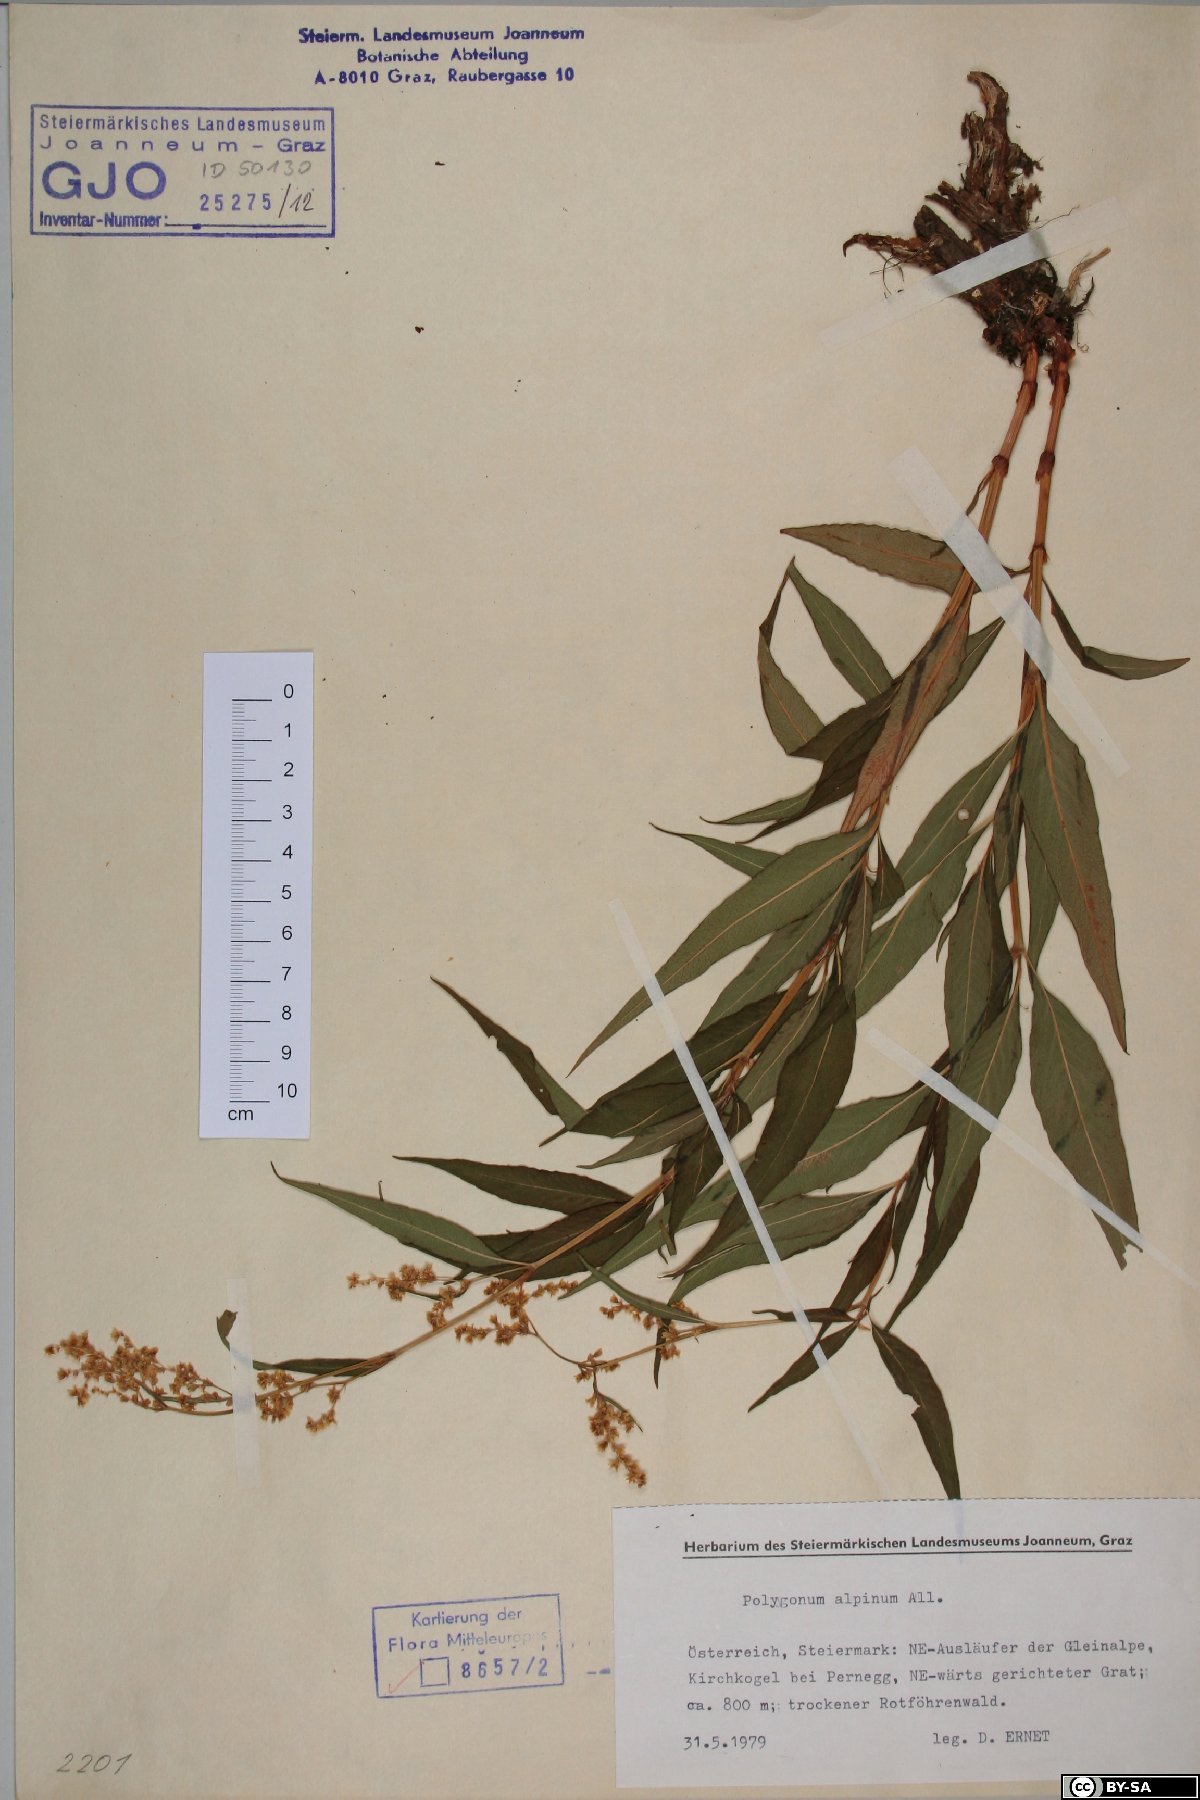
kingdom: Plantae
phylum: Tracheophyta
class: Magnoliopsida
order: Caryophyllales
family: Polygonaceae
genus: Koenigia
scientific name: Koenigia alpina
